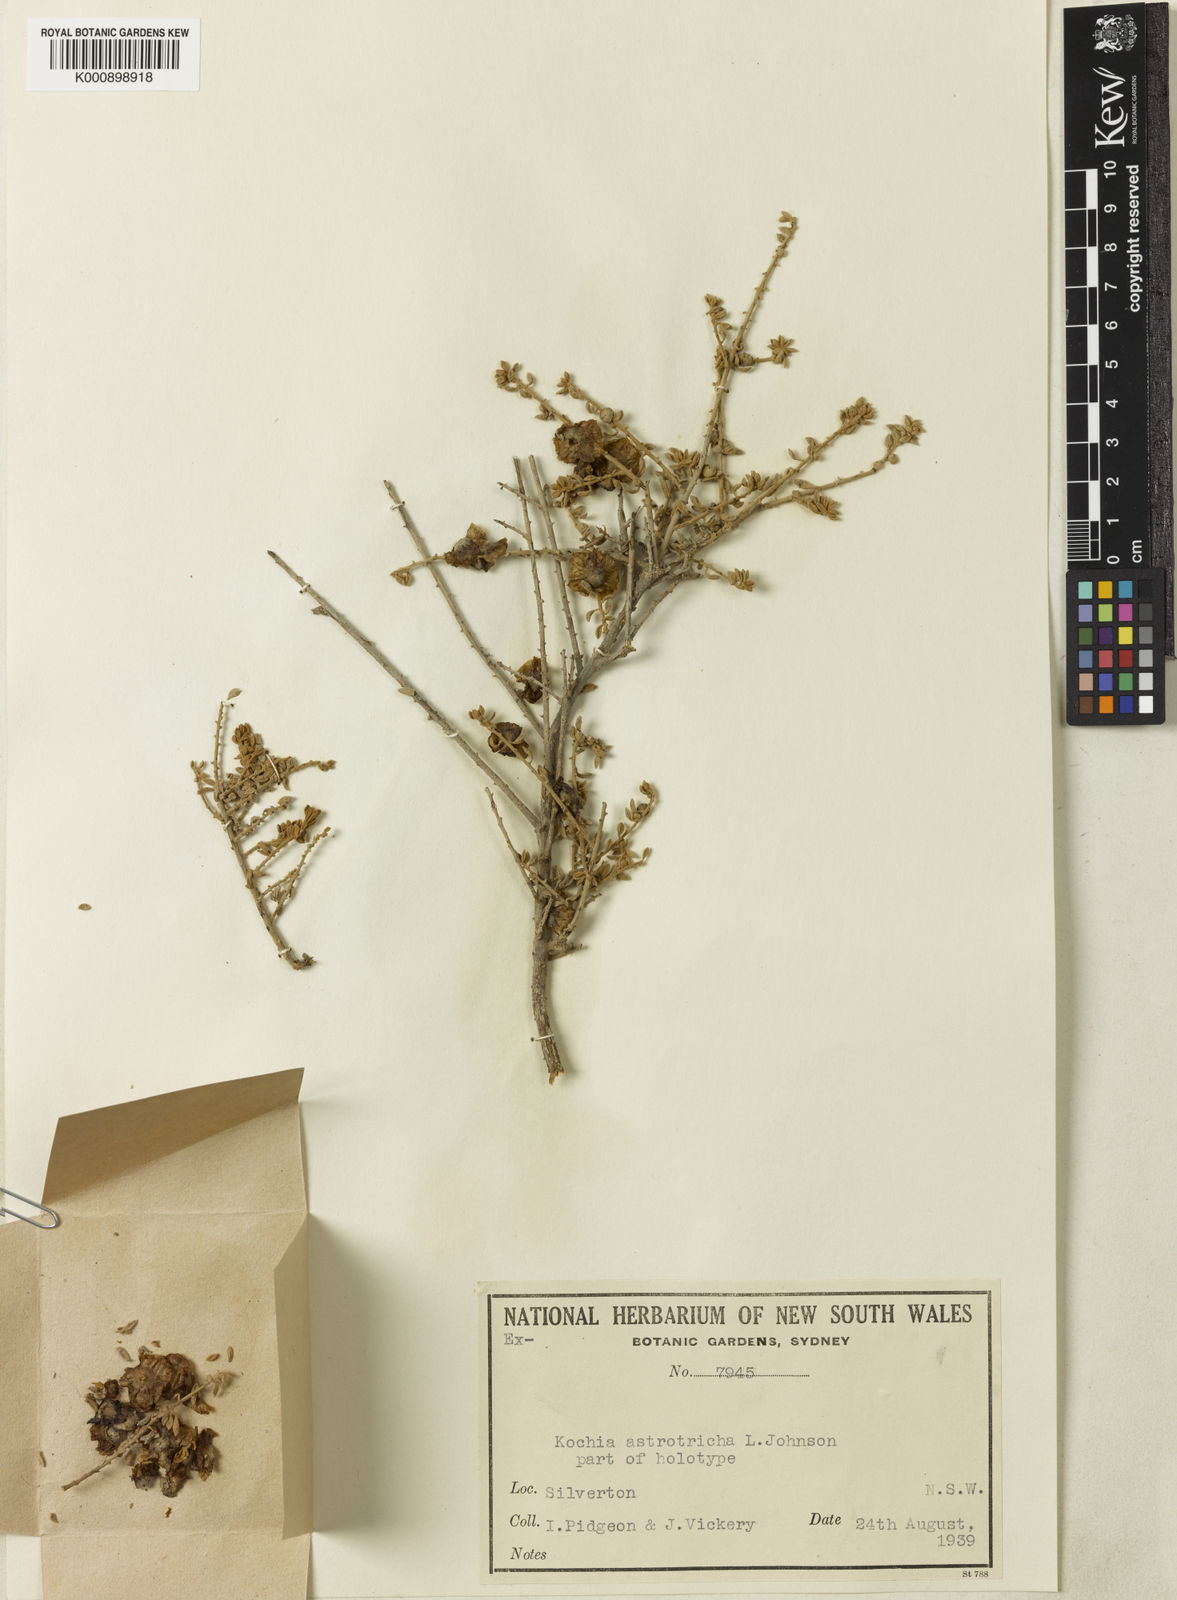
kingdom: Plantae
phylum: Tracheophyta
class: Magnoliopsida
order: Caryophyllales
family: Amaranthaceae
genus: Maireana
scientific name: Maireana astrotricha
